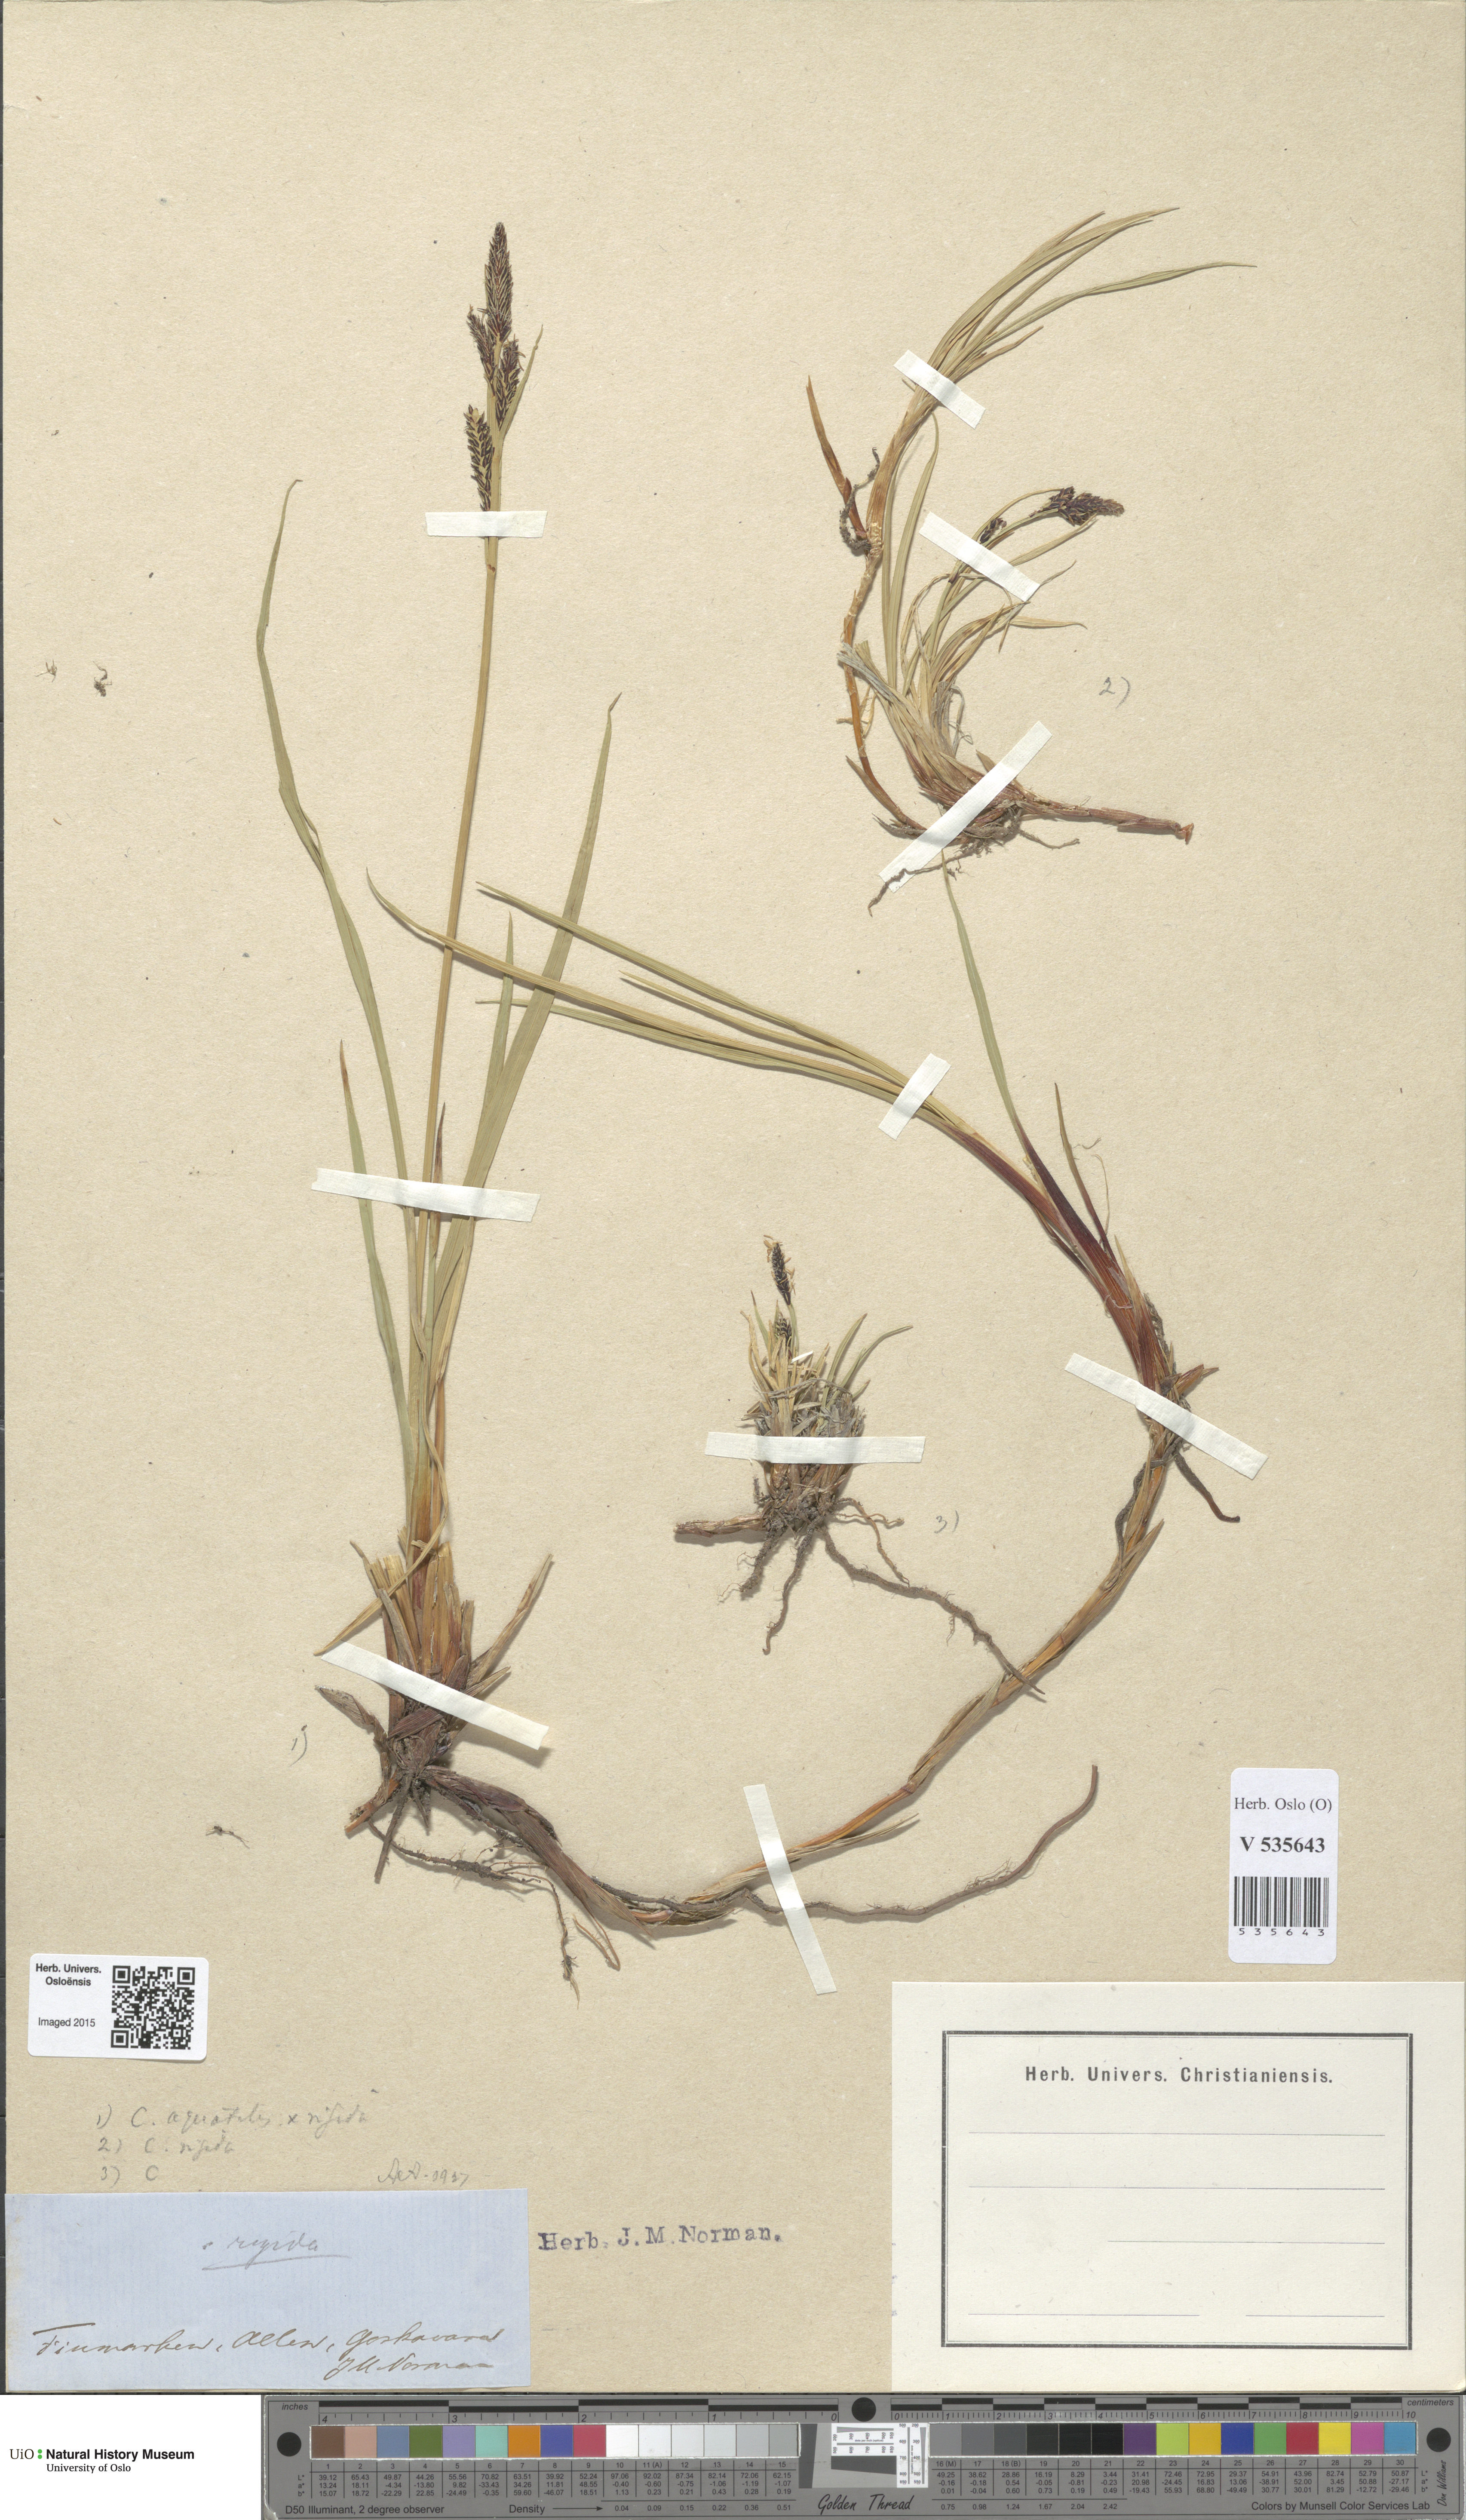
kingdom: Plantae
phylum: Tracheophyta
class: Liliopsida
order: Poales
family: Cyperaceae
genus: Carex
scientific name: Carex
